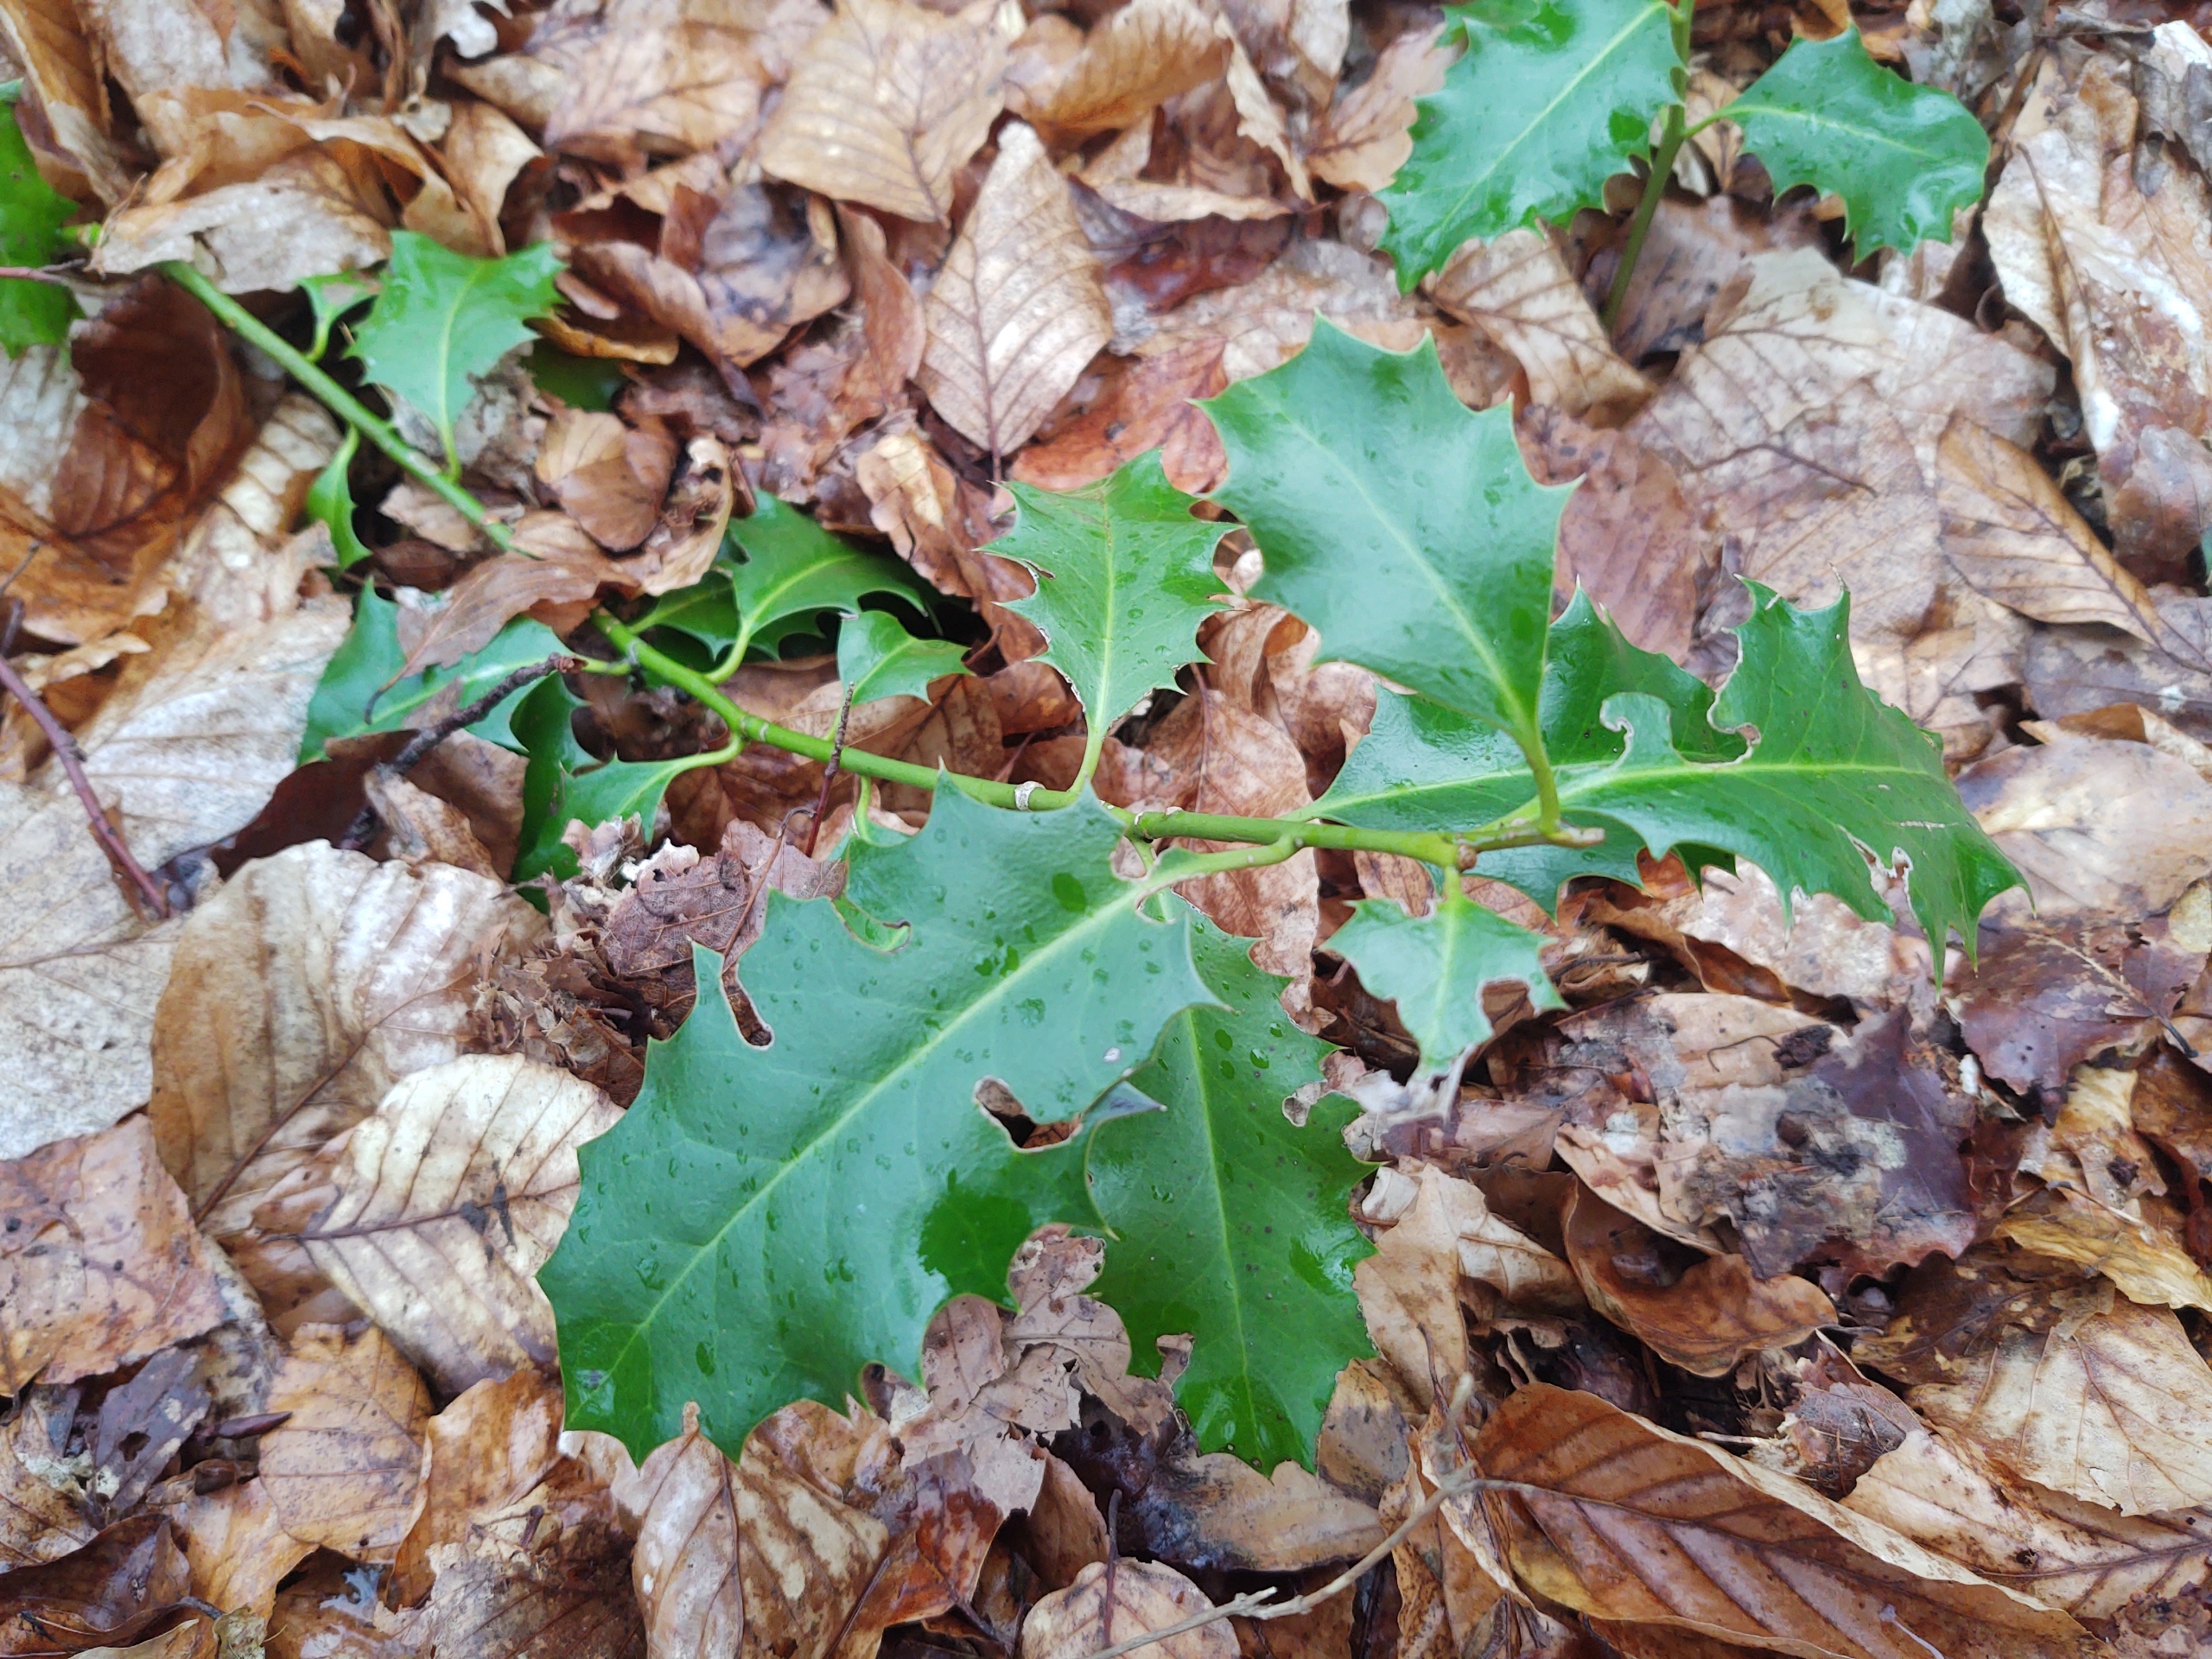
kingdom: Plantae
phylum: Tracheophyta
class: Magnoliopsida
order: Aquifoliales
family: Aquifoliaceae
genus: Ilex
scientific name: Ilex aquifolium
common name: Kristtorn
